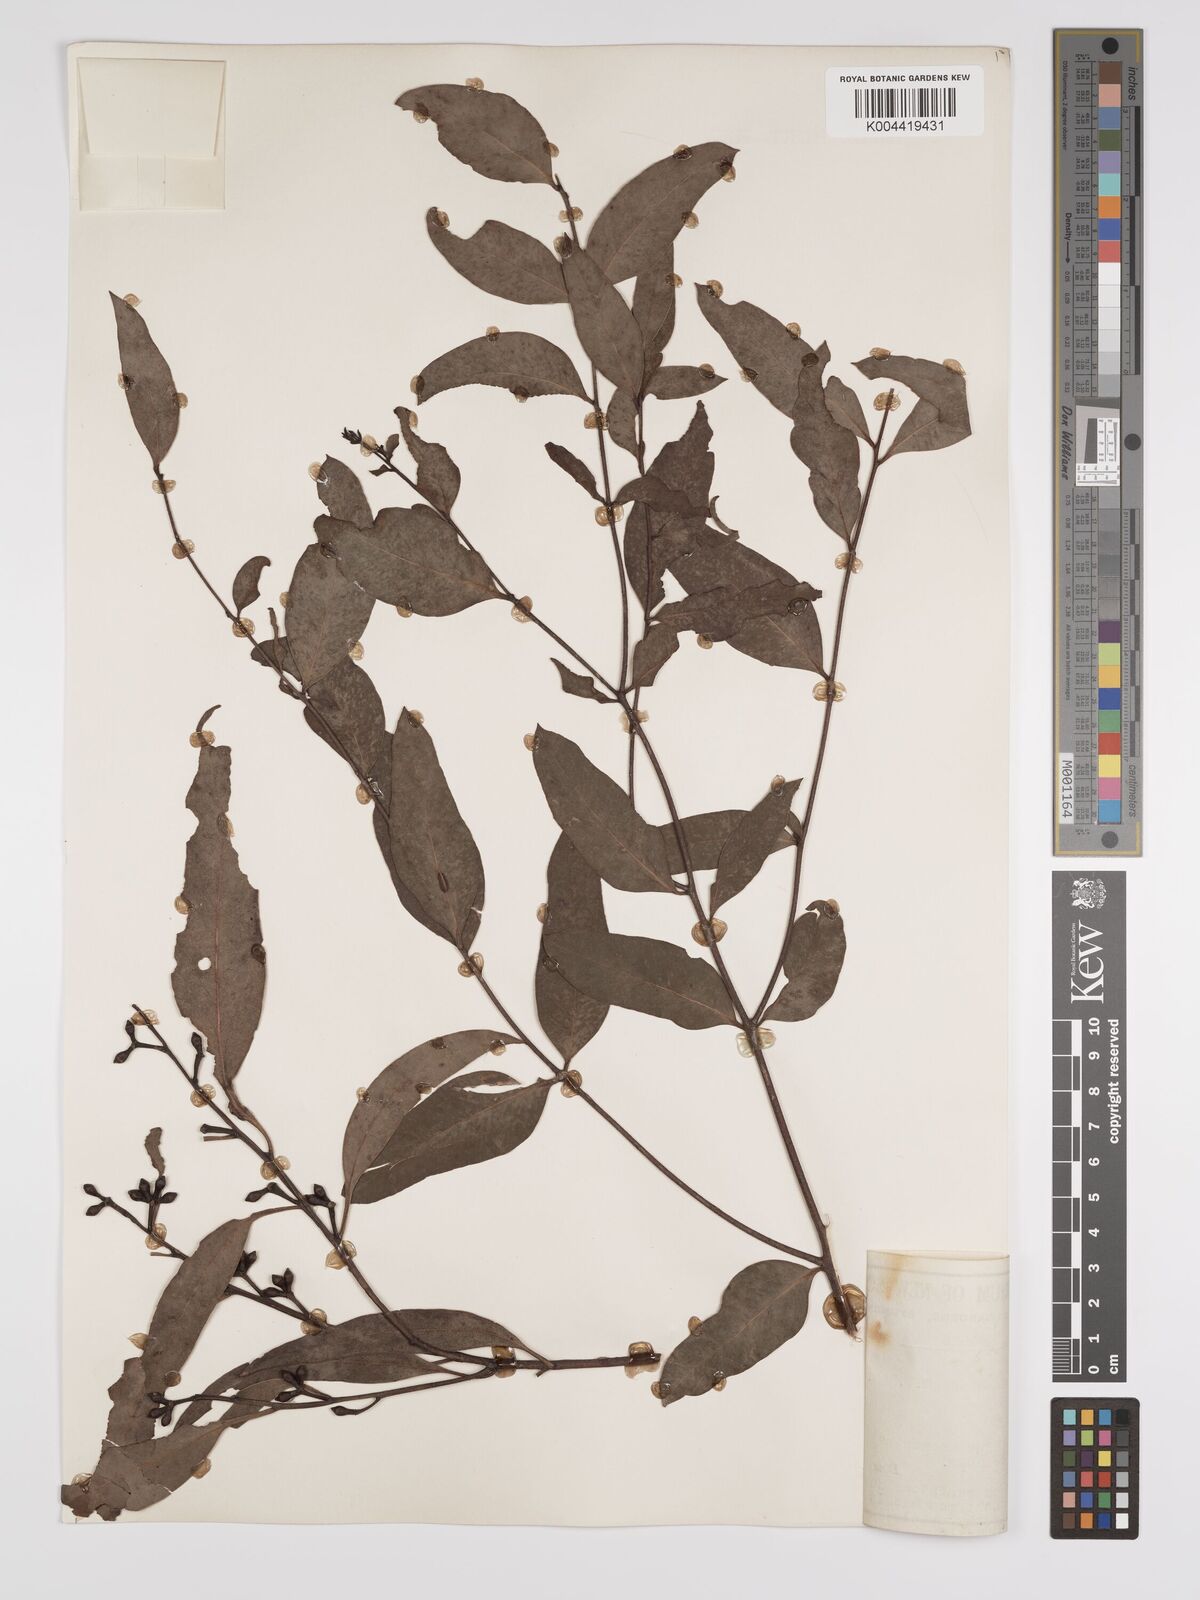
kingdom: Plantae
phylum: Tracheophyta
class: Magnoliopsida
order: Myrtales
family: Myrtaceae
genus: Eucalyptus
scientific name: Eucalyptus mannifera
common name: Manna gum
